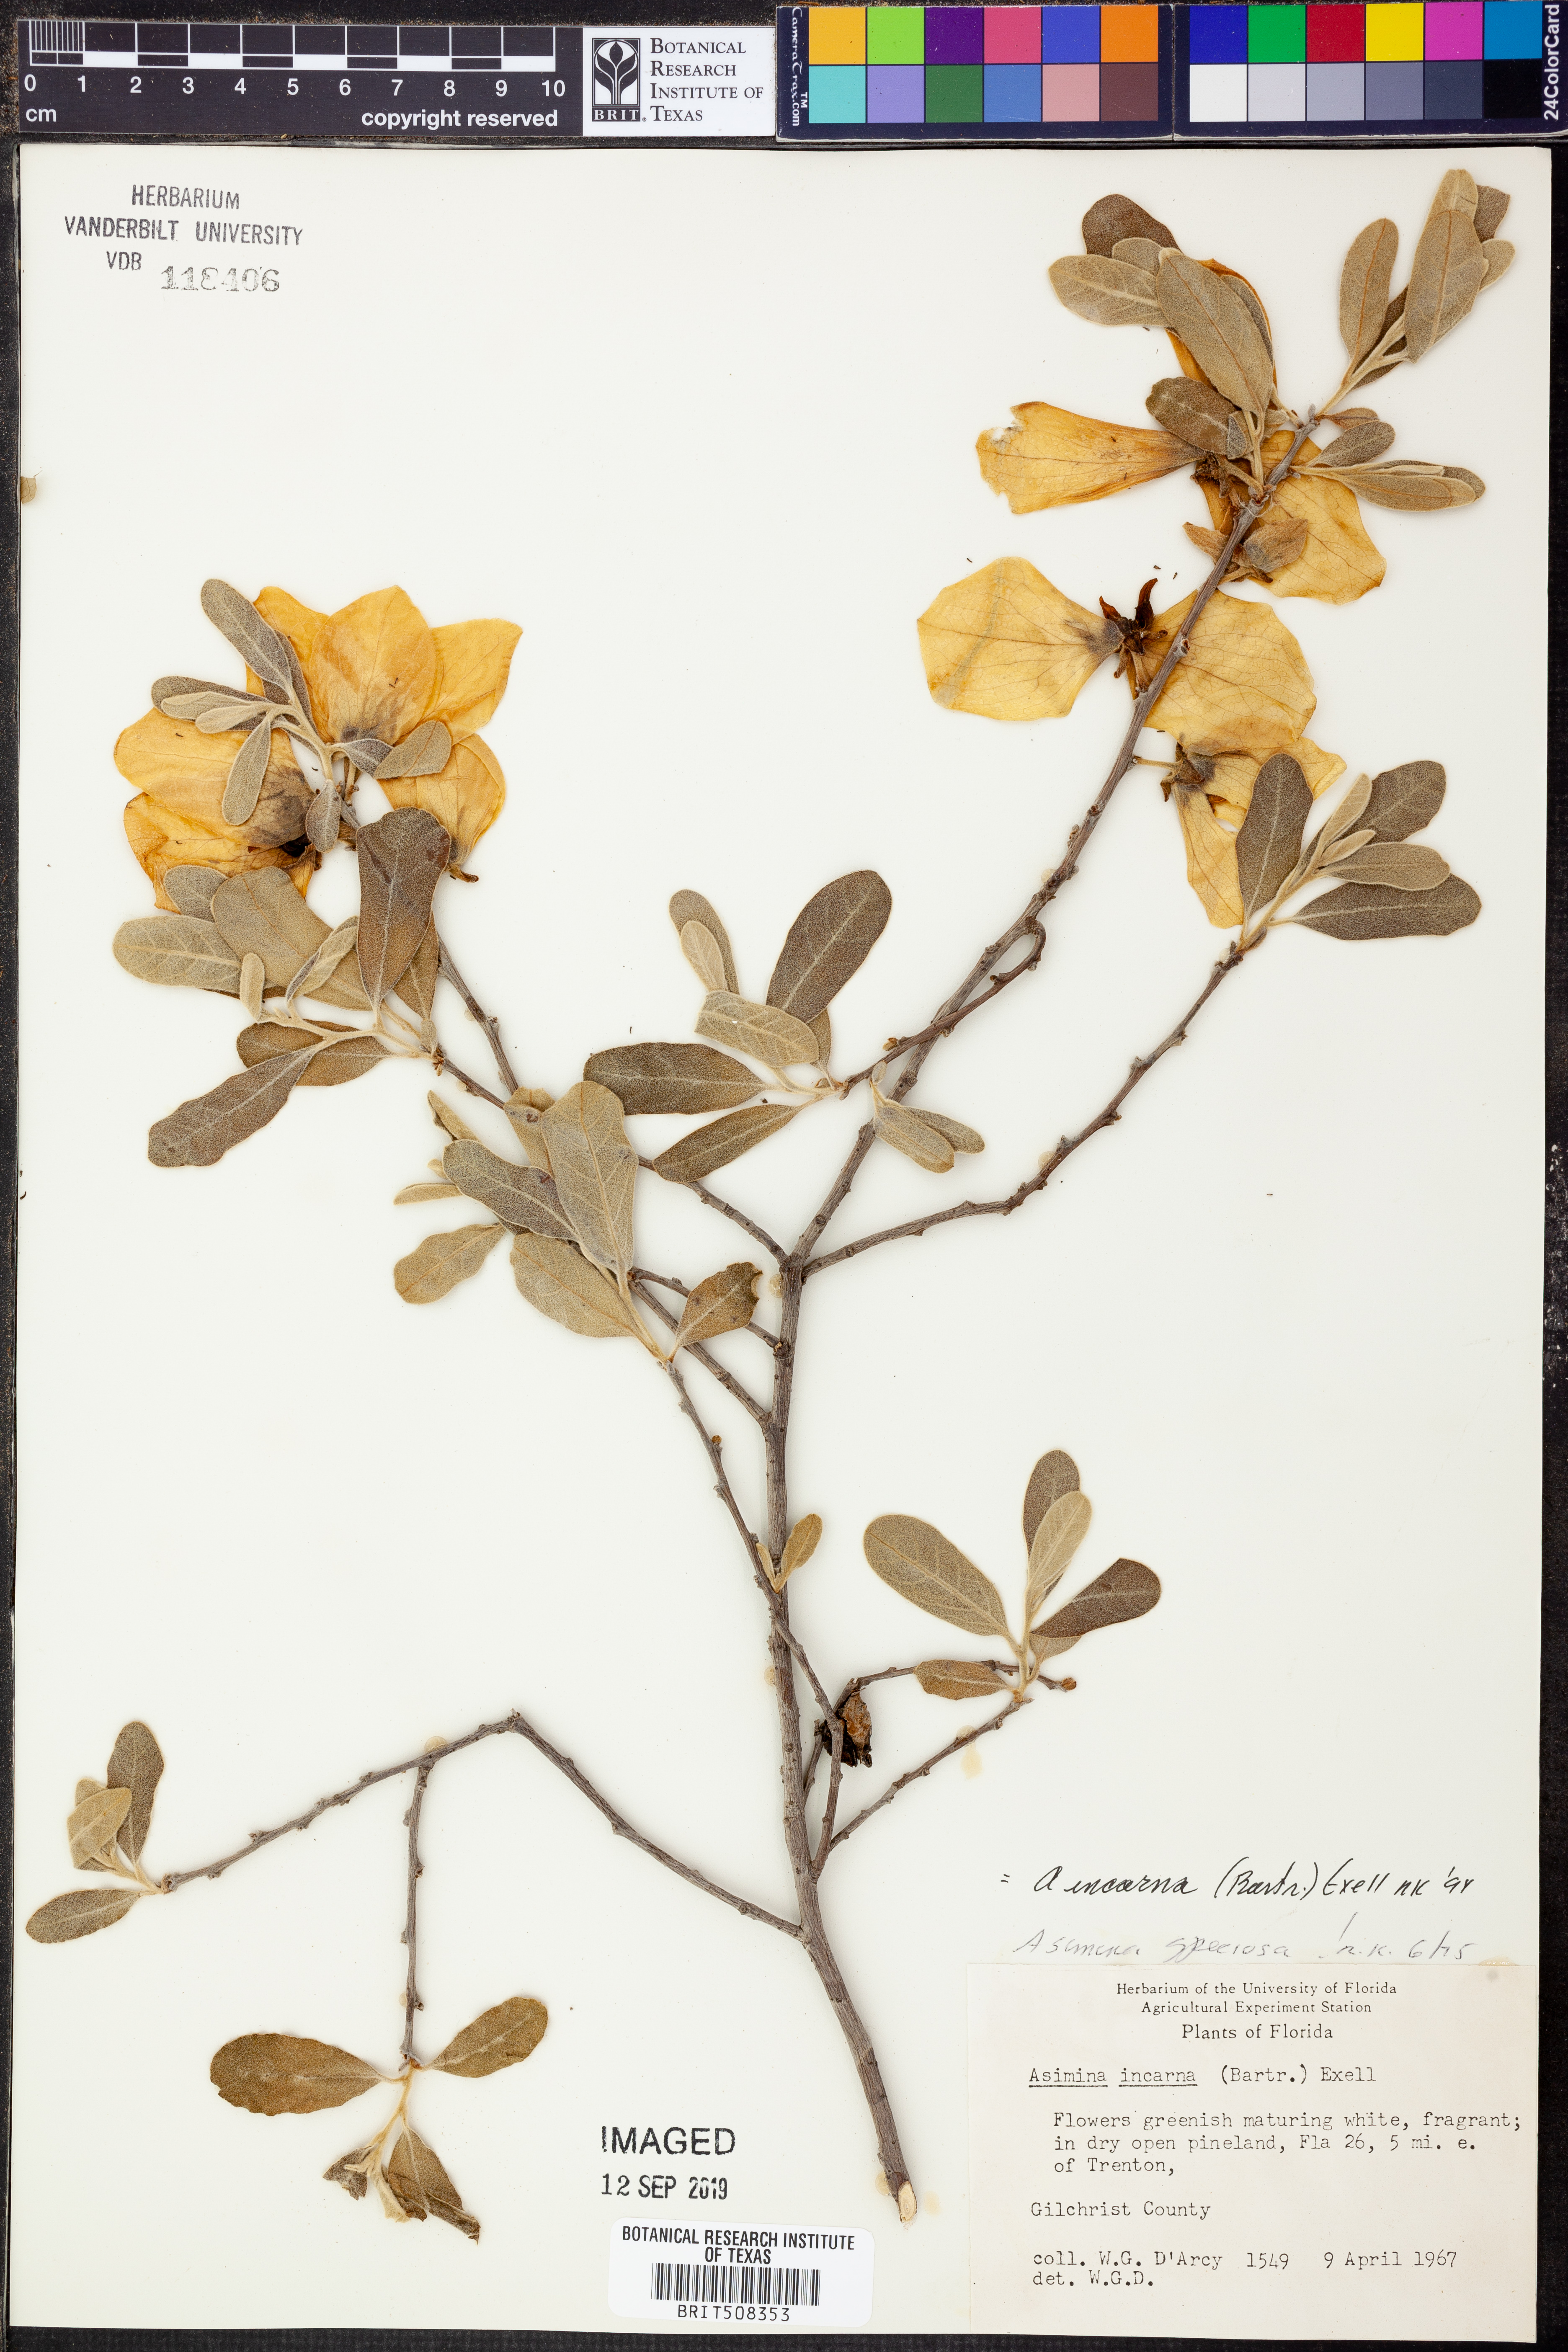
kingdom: Plantae
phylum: Tracheophyta
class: Magnoliopsida
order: Magnoliales
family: Annonaceae
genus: Asimina
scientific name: Asimina speciosa
